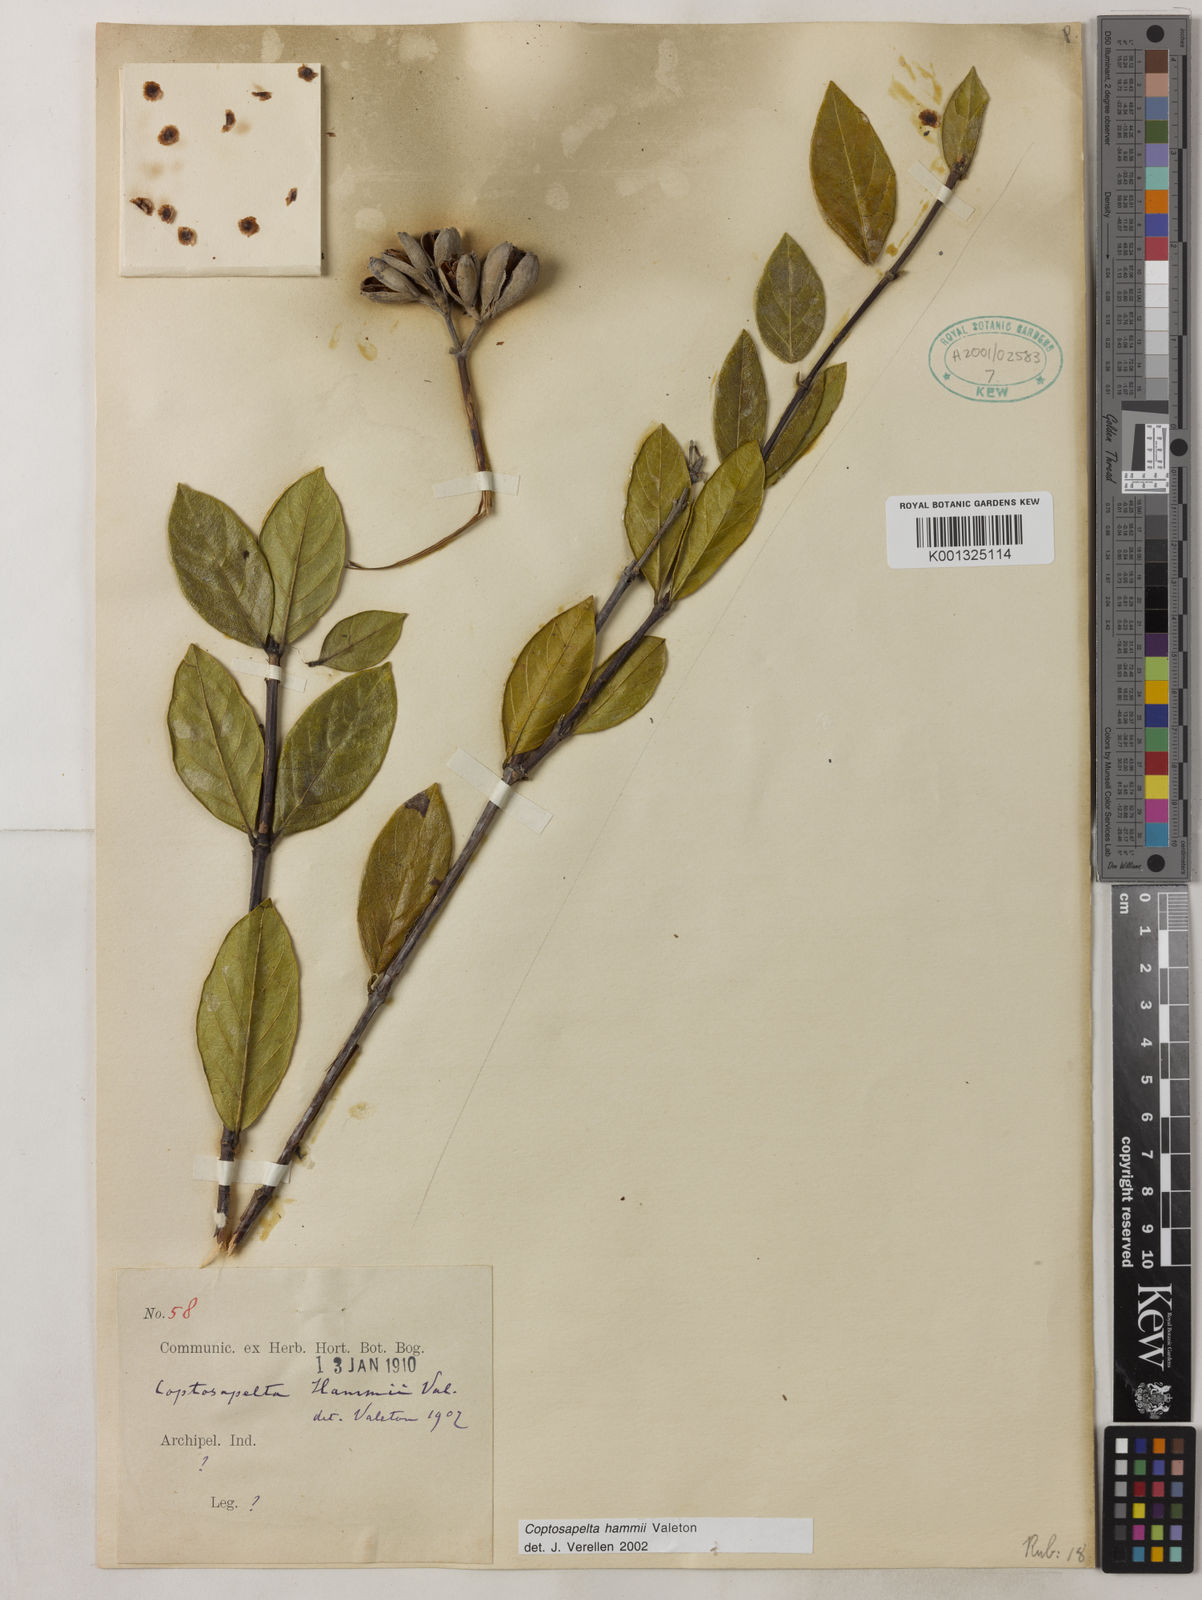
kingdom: Plantae
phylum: Tracheophyta
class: Magnoliopsida
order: Gentianales
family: Rubiaceae
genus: Coptosapelta
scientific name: Coptosapelta hammii
